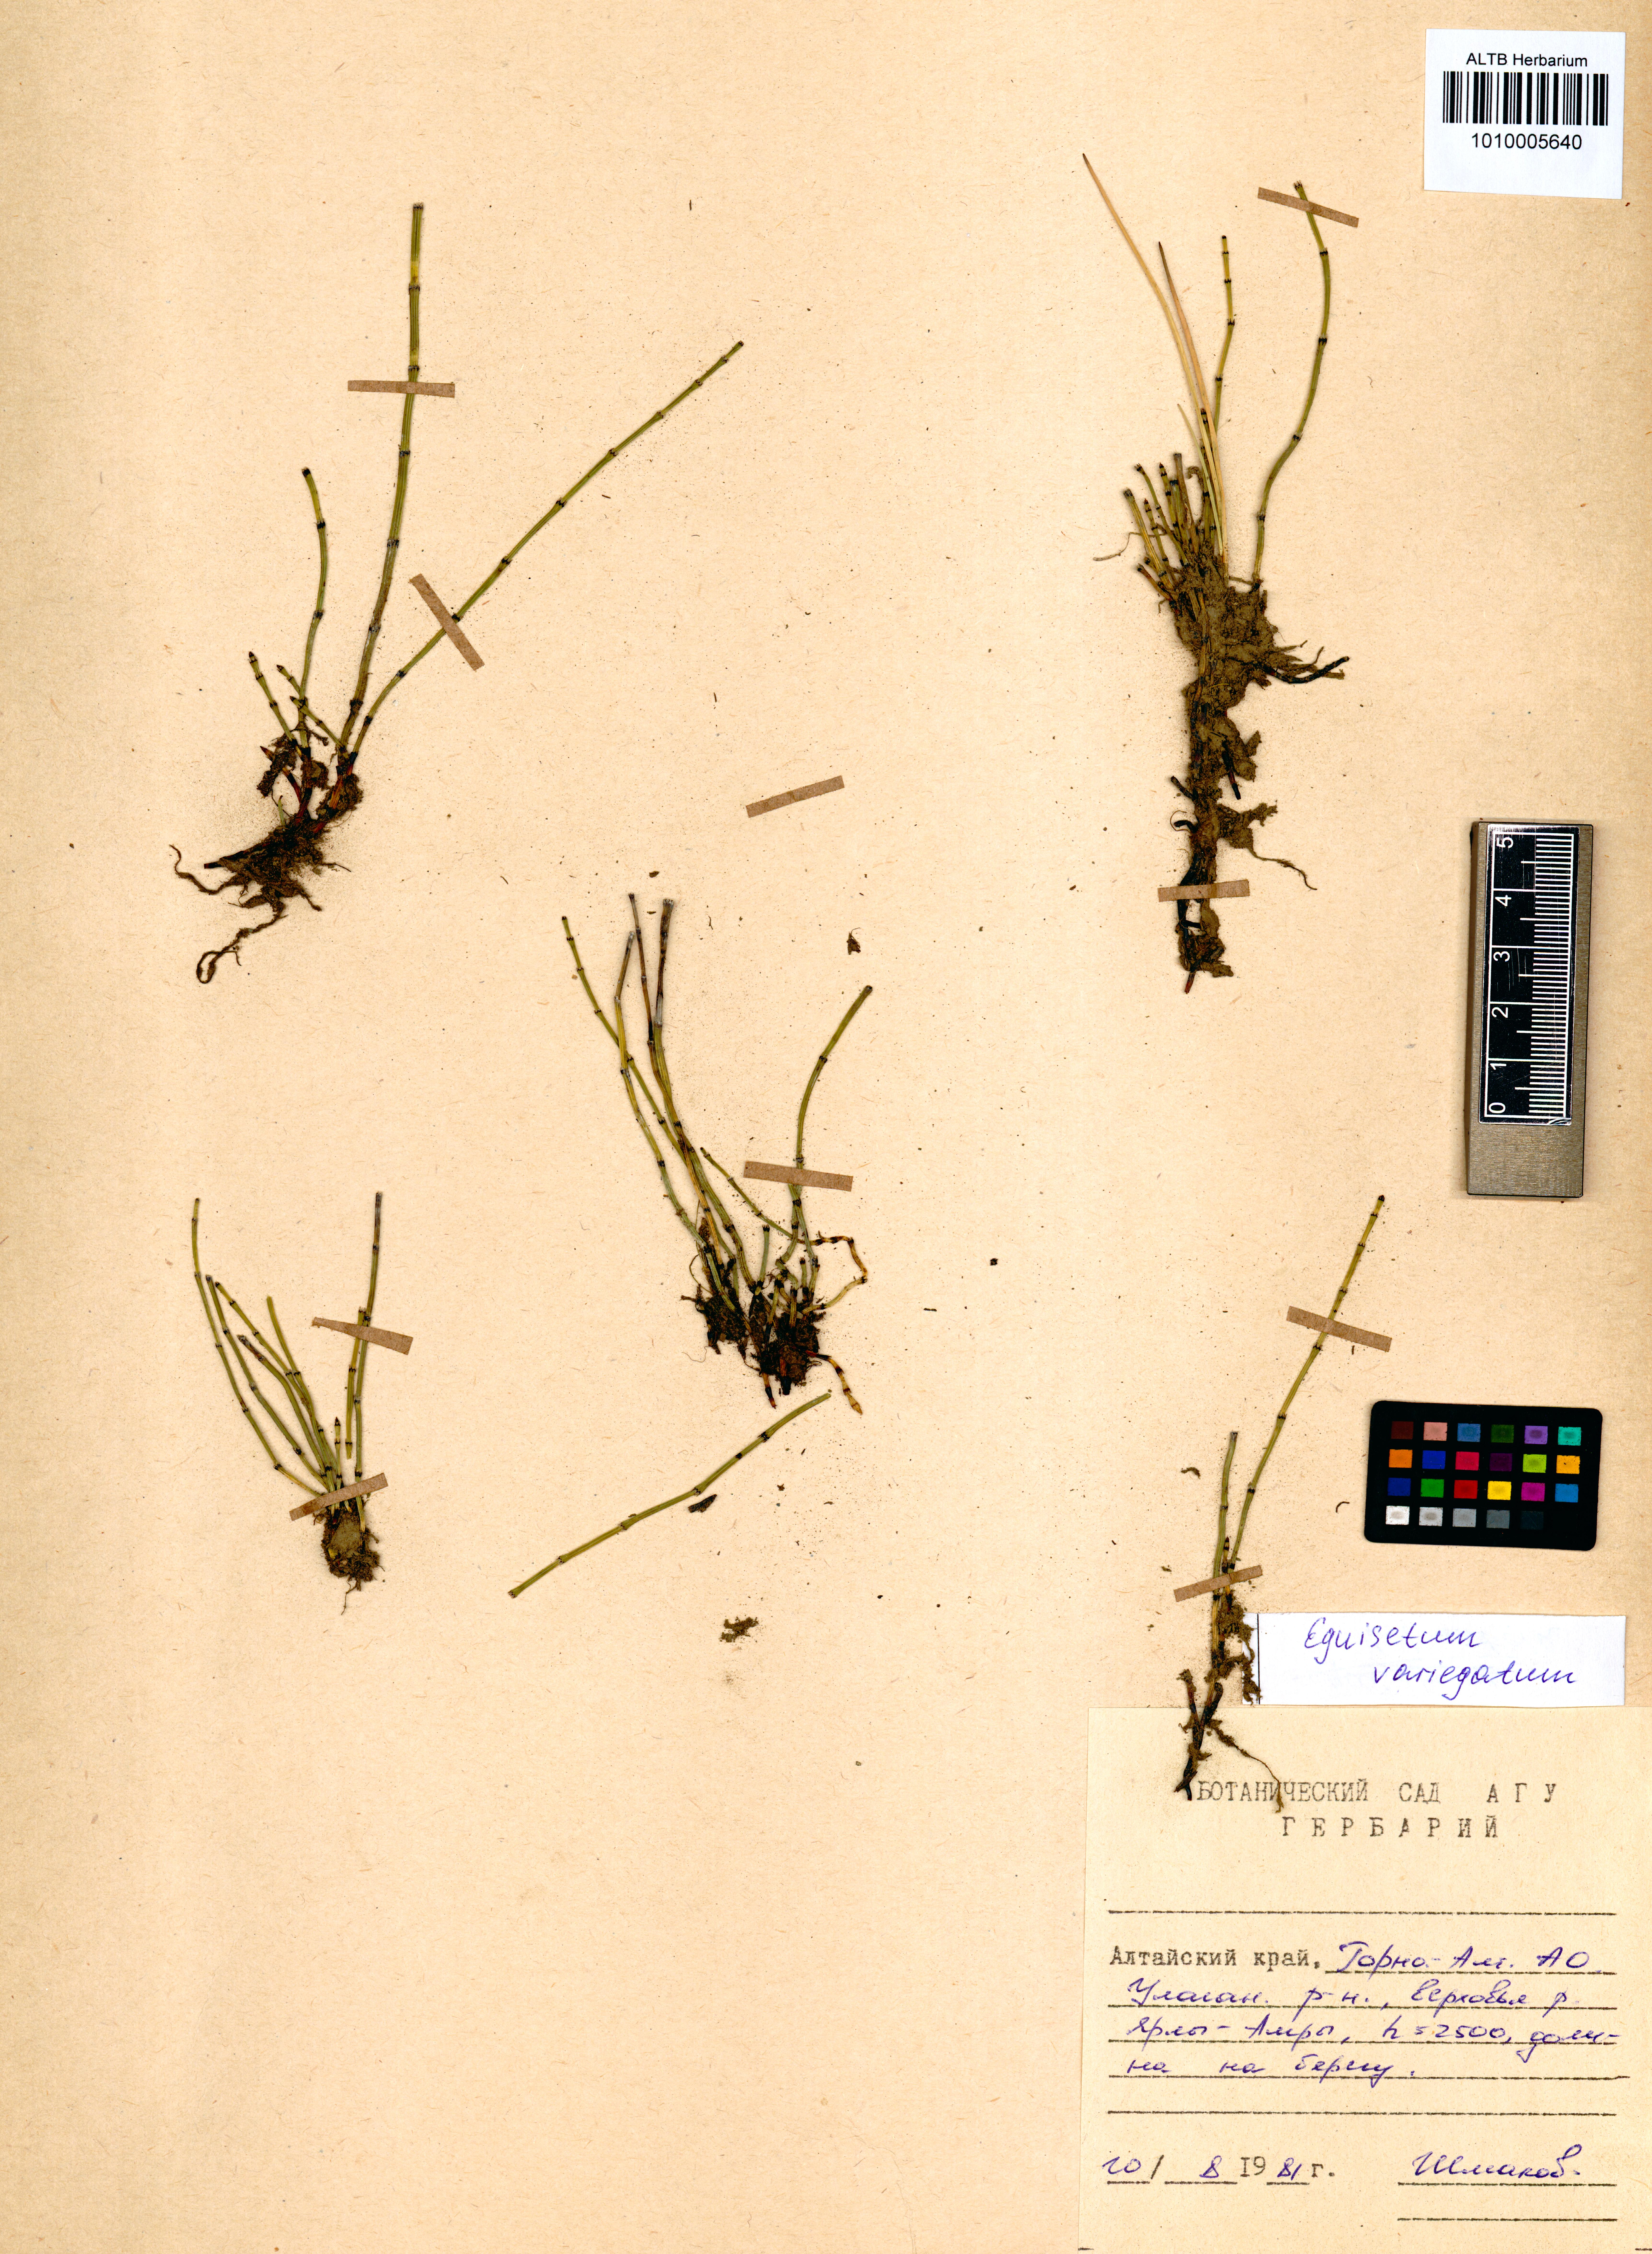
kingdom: Plantae
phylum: Tracheophyta
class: Polypodiopsida
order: Equisetales
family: Equisetaceae
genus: Equisetum
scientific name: Equisetum variegatum
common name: Variegated horsetail
